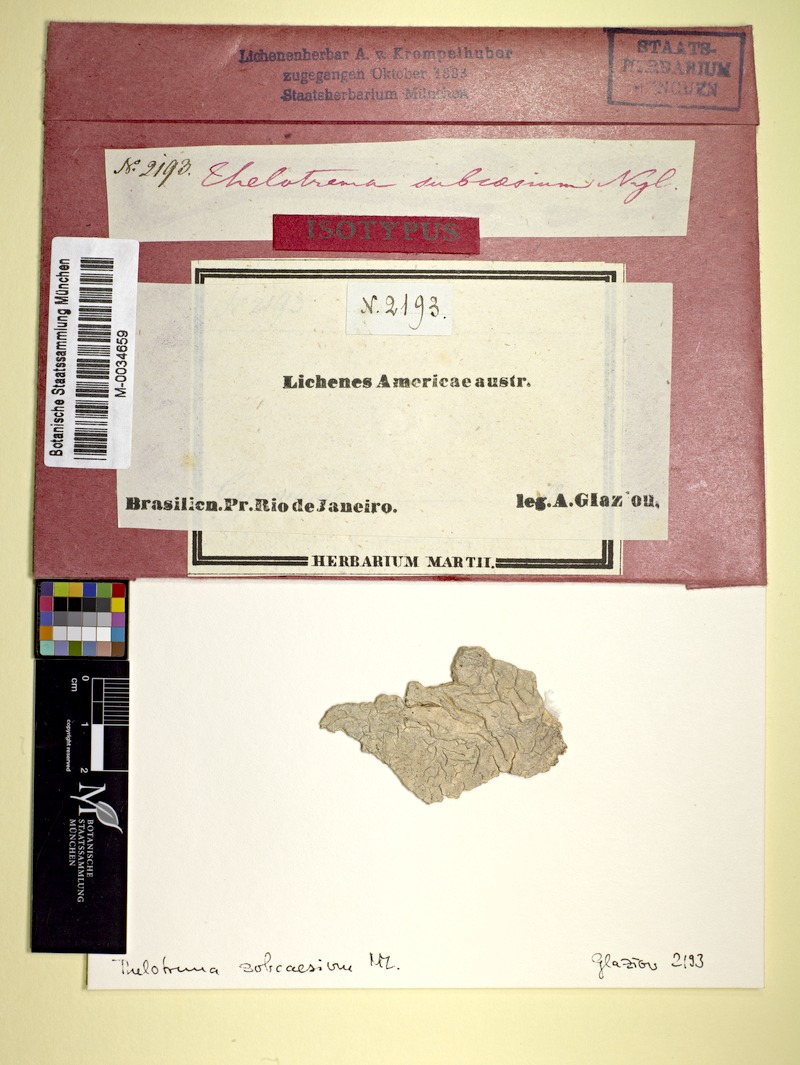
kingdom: Fungi
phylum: Ascomycota
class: Lecanoromycetes
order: Ostropales
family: Graphidaceae
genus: Thelotrema
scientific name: Thelotrema
